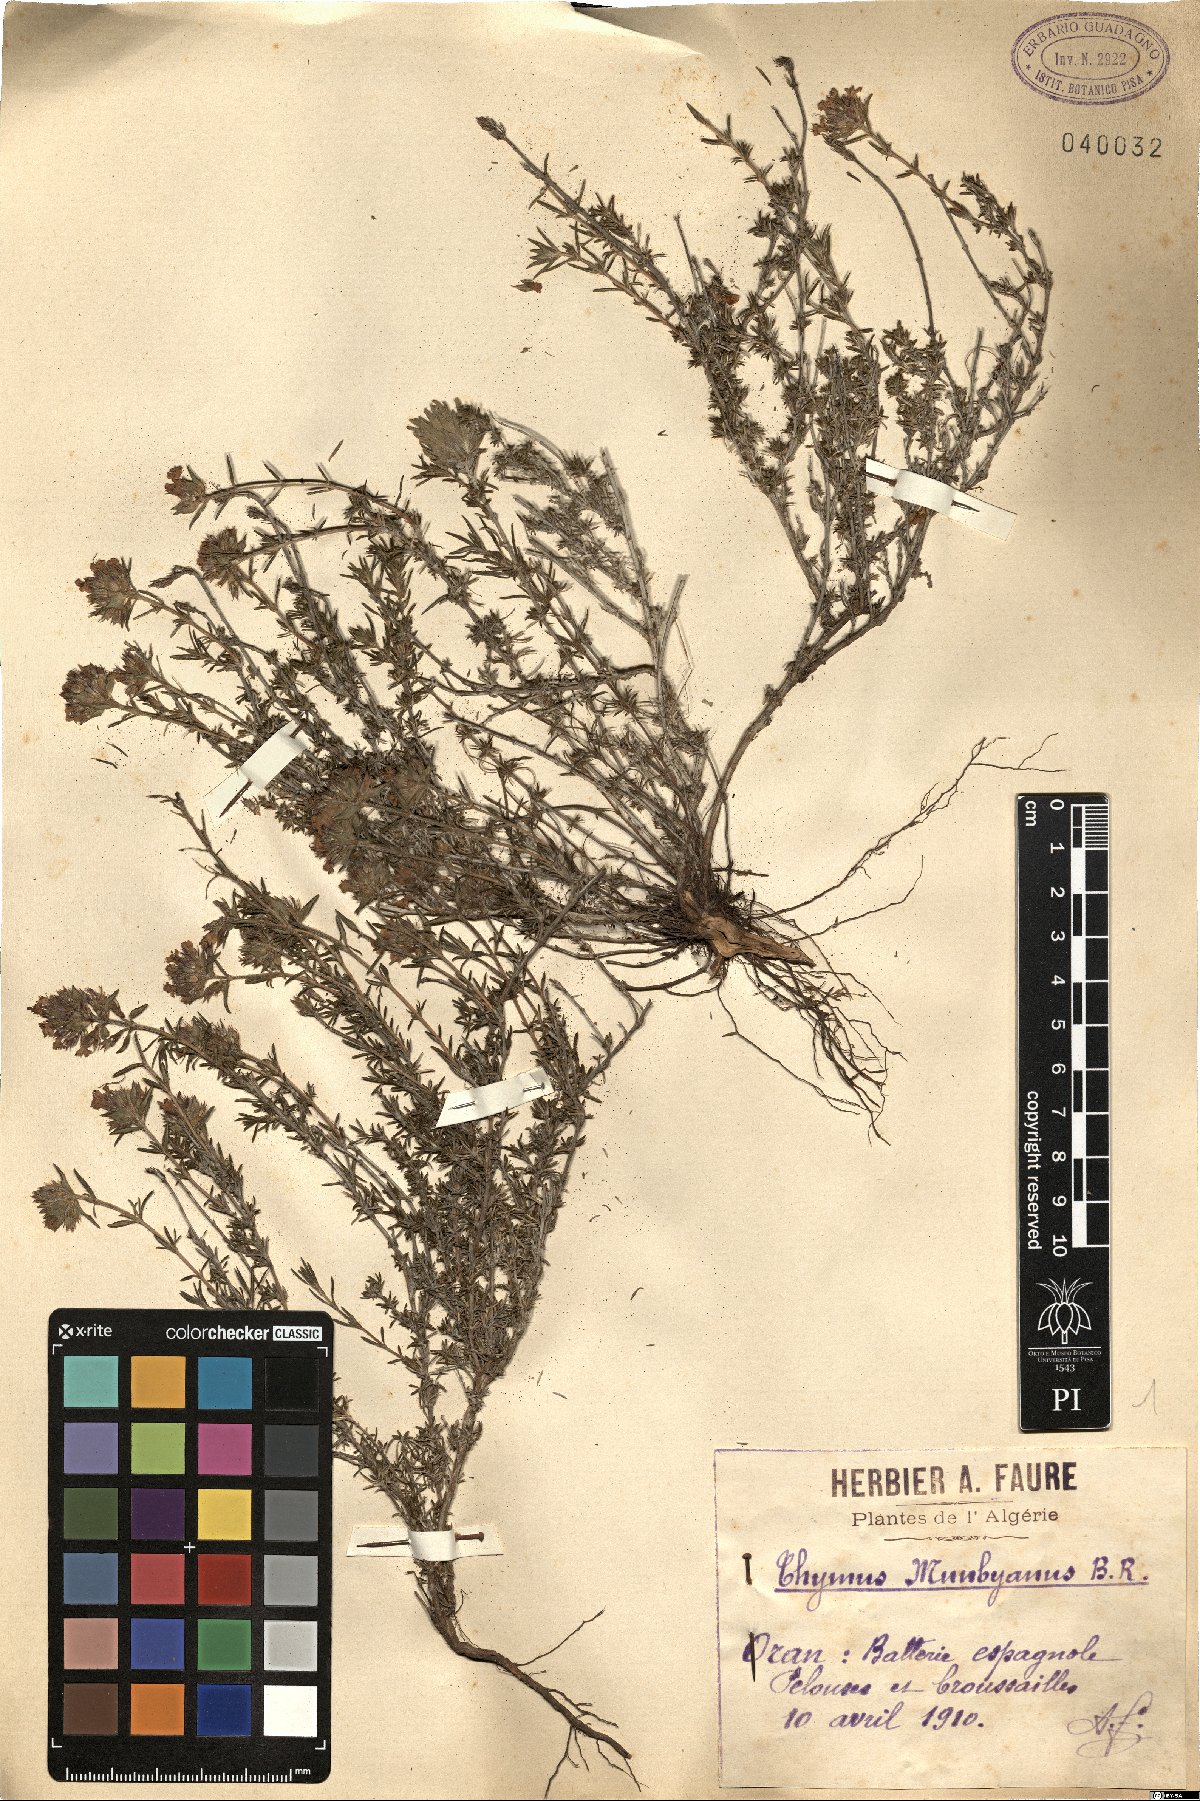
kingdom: Plantae
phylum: Tracheophyta
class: Magnoliopsida
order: Lamiales
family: Lamiaceae
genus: Thymus
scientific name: Thymus munbyanus
